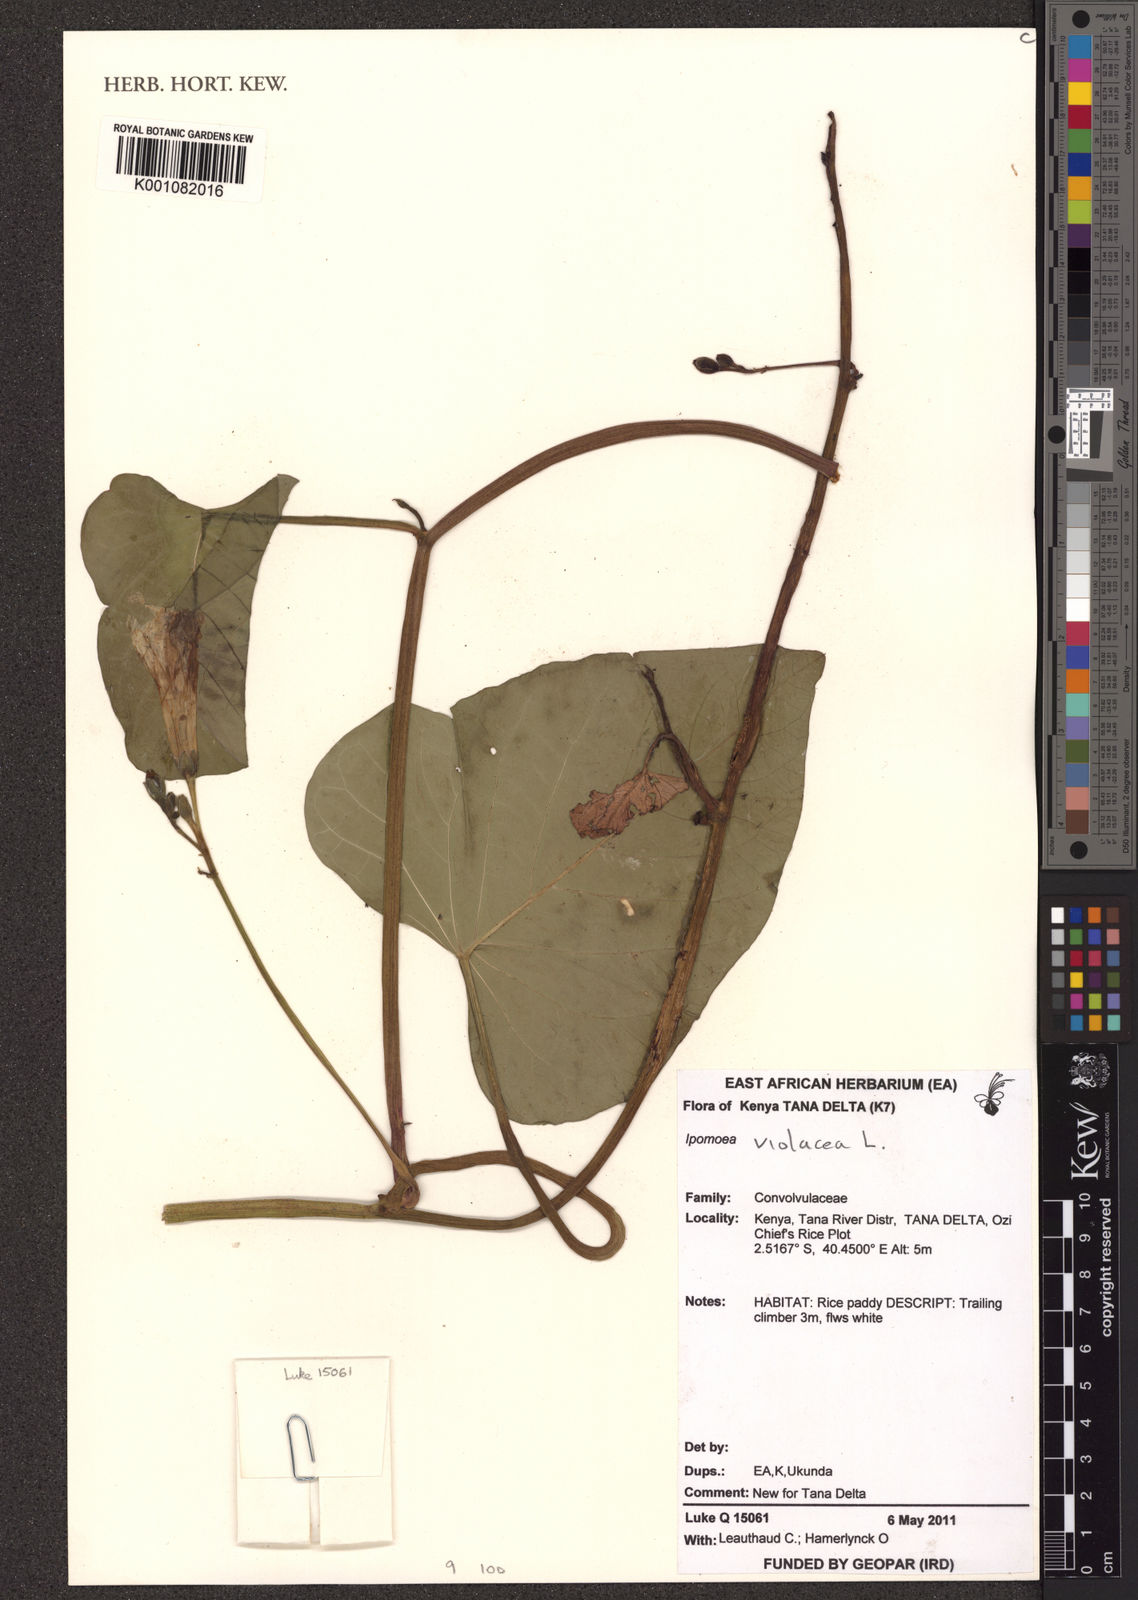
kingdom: Plantae
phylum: Tracheophyta
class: Magnoliopsida
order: Solanales
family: Convolvulaceae
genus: Ipomoea
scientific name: Ipomoea violacea
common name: Beach moonflower
